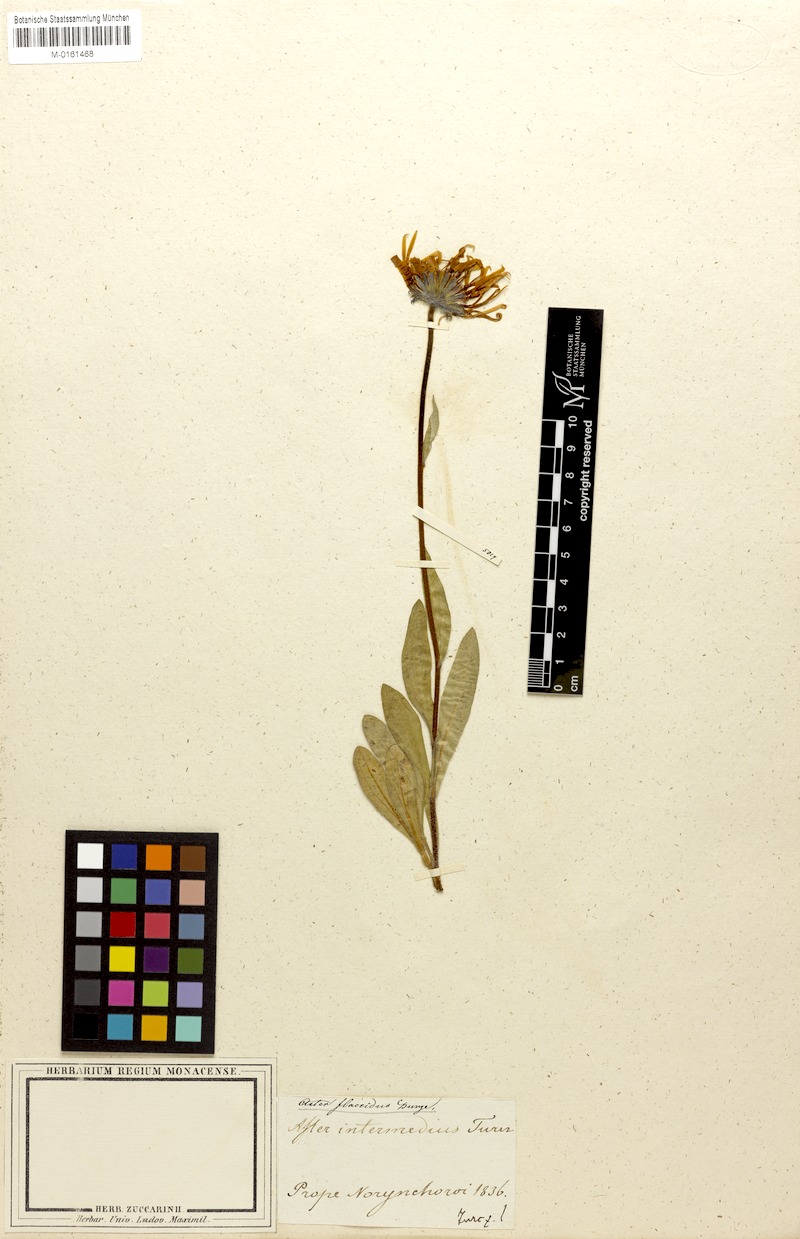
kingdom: Plantae
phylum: Tracheophyta
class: Magnoliopsida
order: Asterales
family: Asteraceae
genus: Tibetiodes
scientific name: Tibetiodes flaccida
